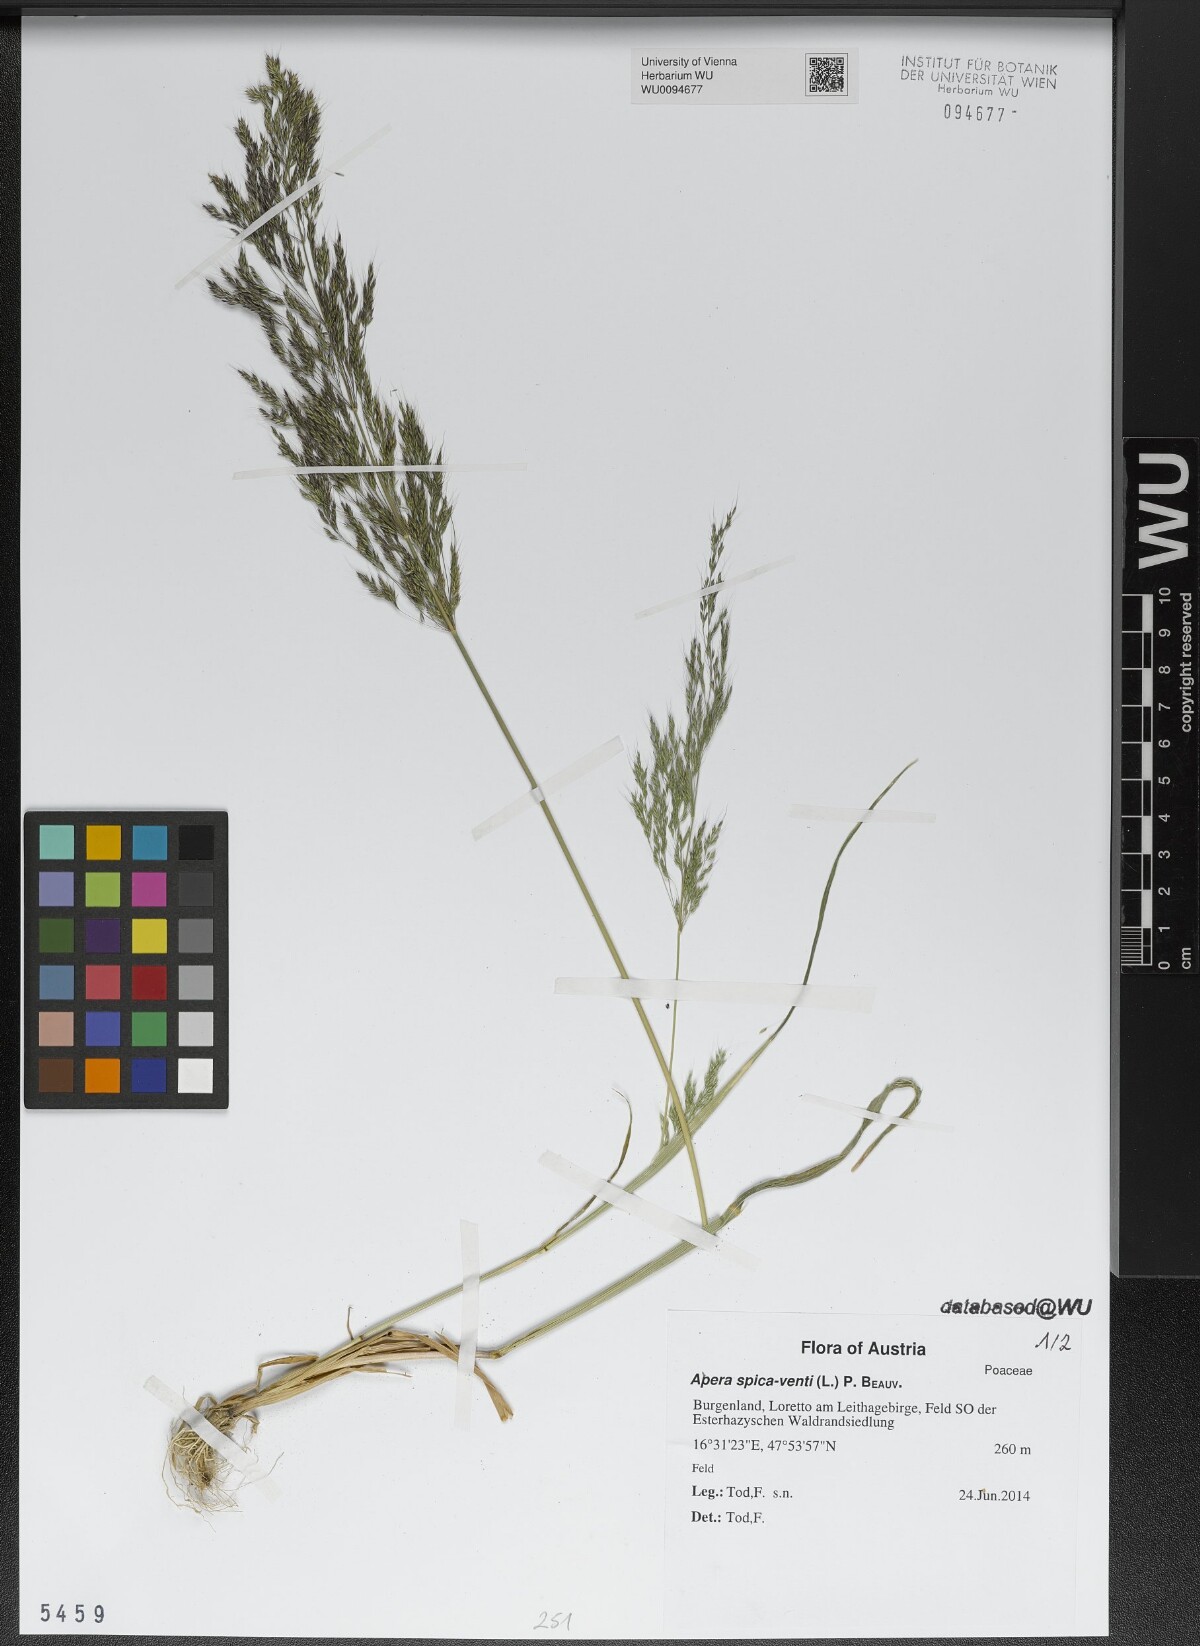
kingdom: Plantae
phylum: Tracheophyta
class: Liliopsida
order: Poales
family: Poaceae
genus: Apera
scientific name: Apera spica-venti
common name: Loose silky-bent
